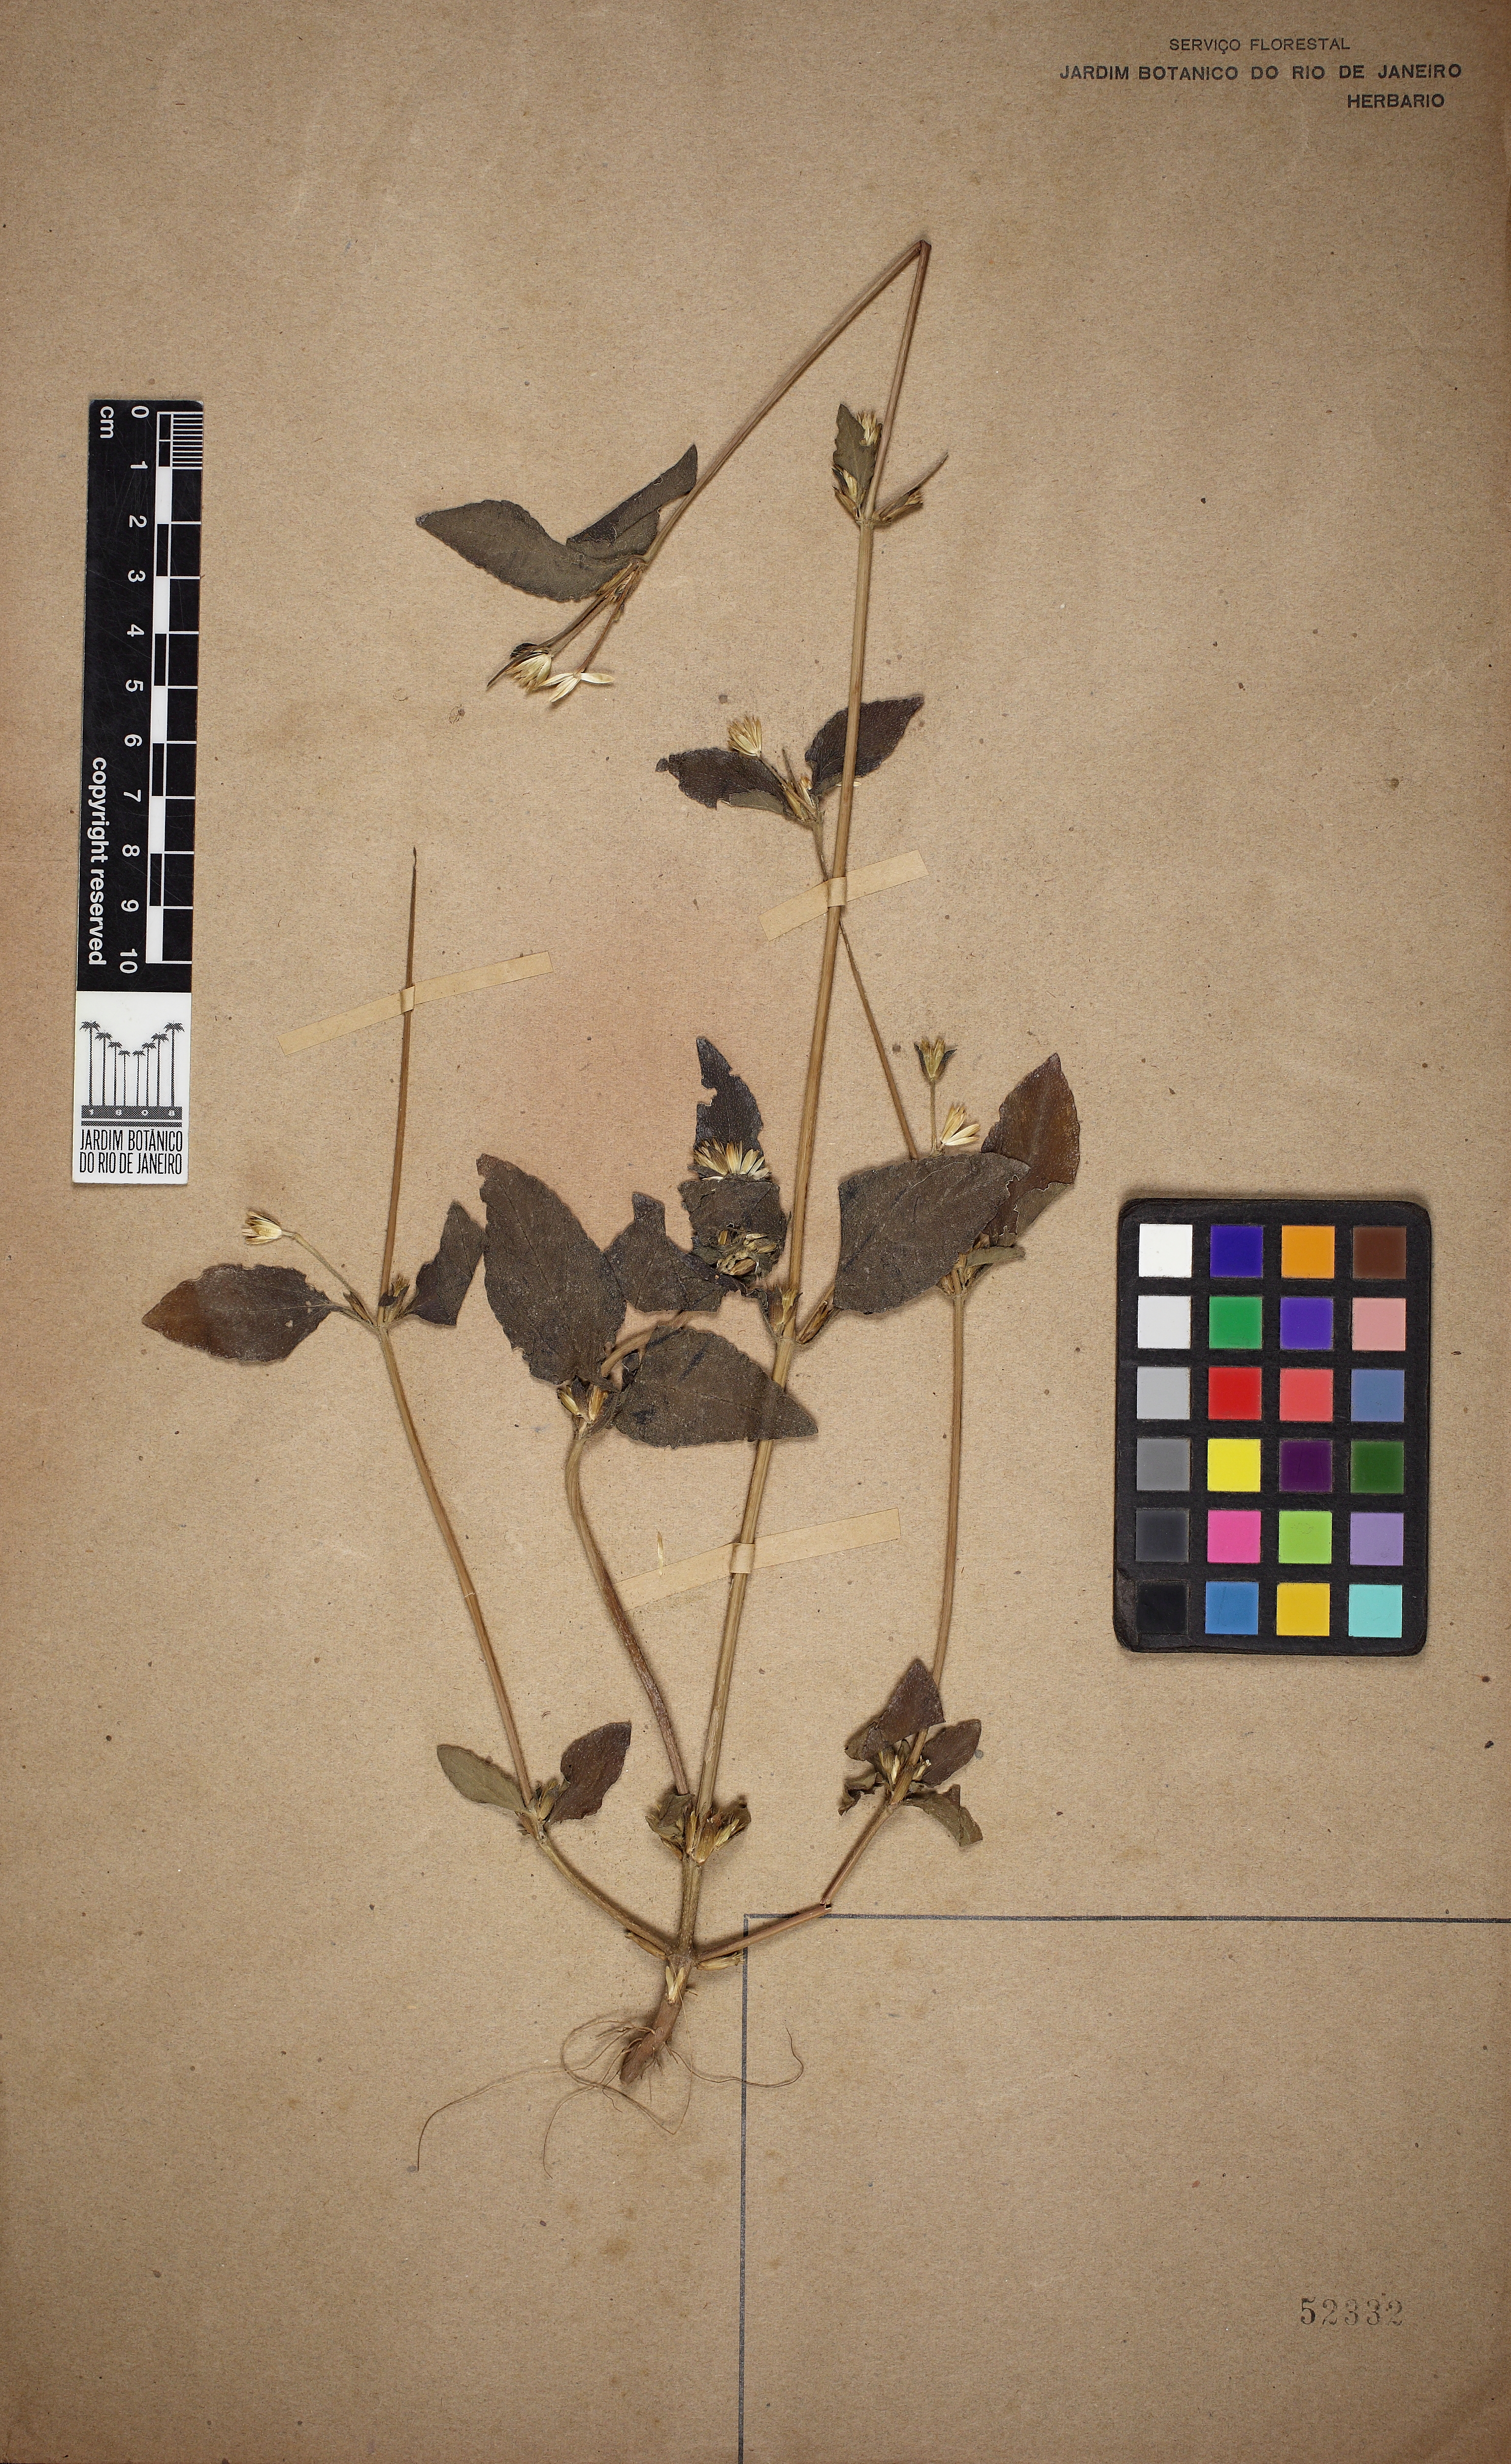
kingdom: Plantae
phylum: Tracheophyta
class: Magnoliopsida
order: Asterales
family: Asteraceae
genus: Synedrella
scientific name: Synedrella nodiflora
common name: Nodeweed
